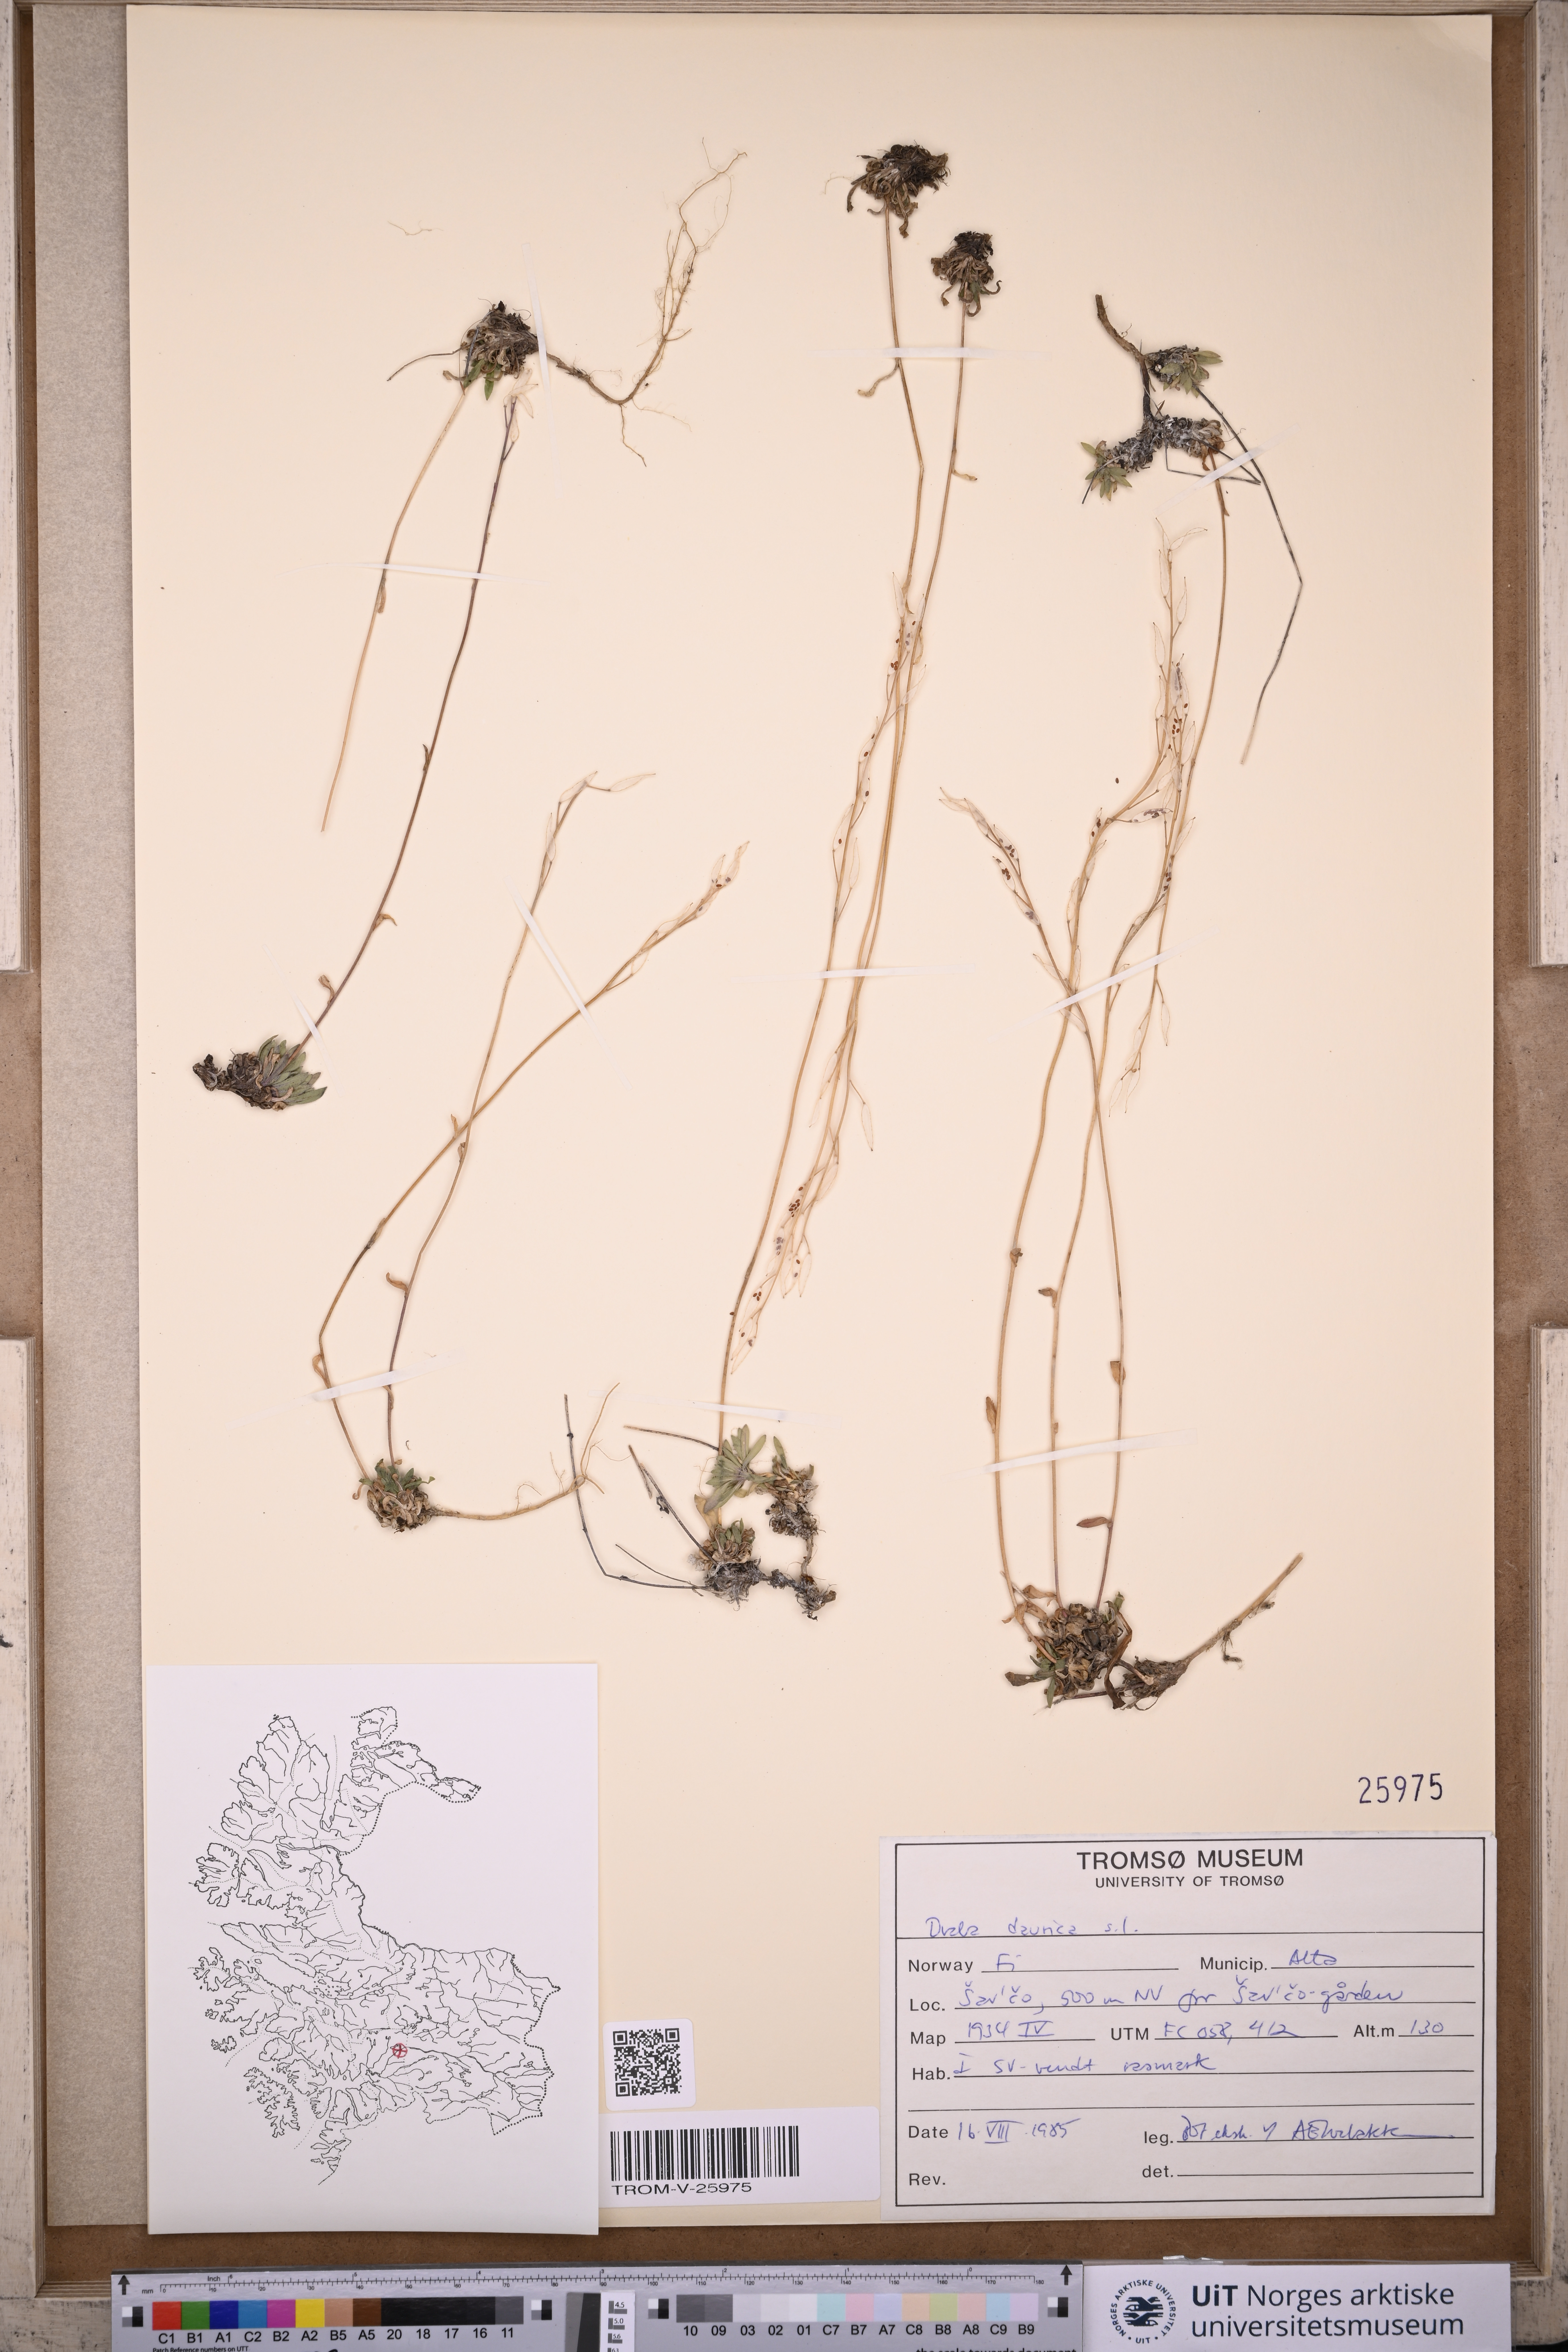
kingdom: Plantae
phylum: Tracheophyta
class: Magnoliopsida
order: Brassicales
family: Brassicaceae
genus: Draba
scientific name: Draba glabella
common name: Glaucous draba
